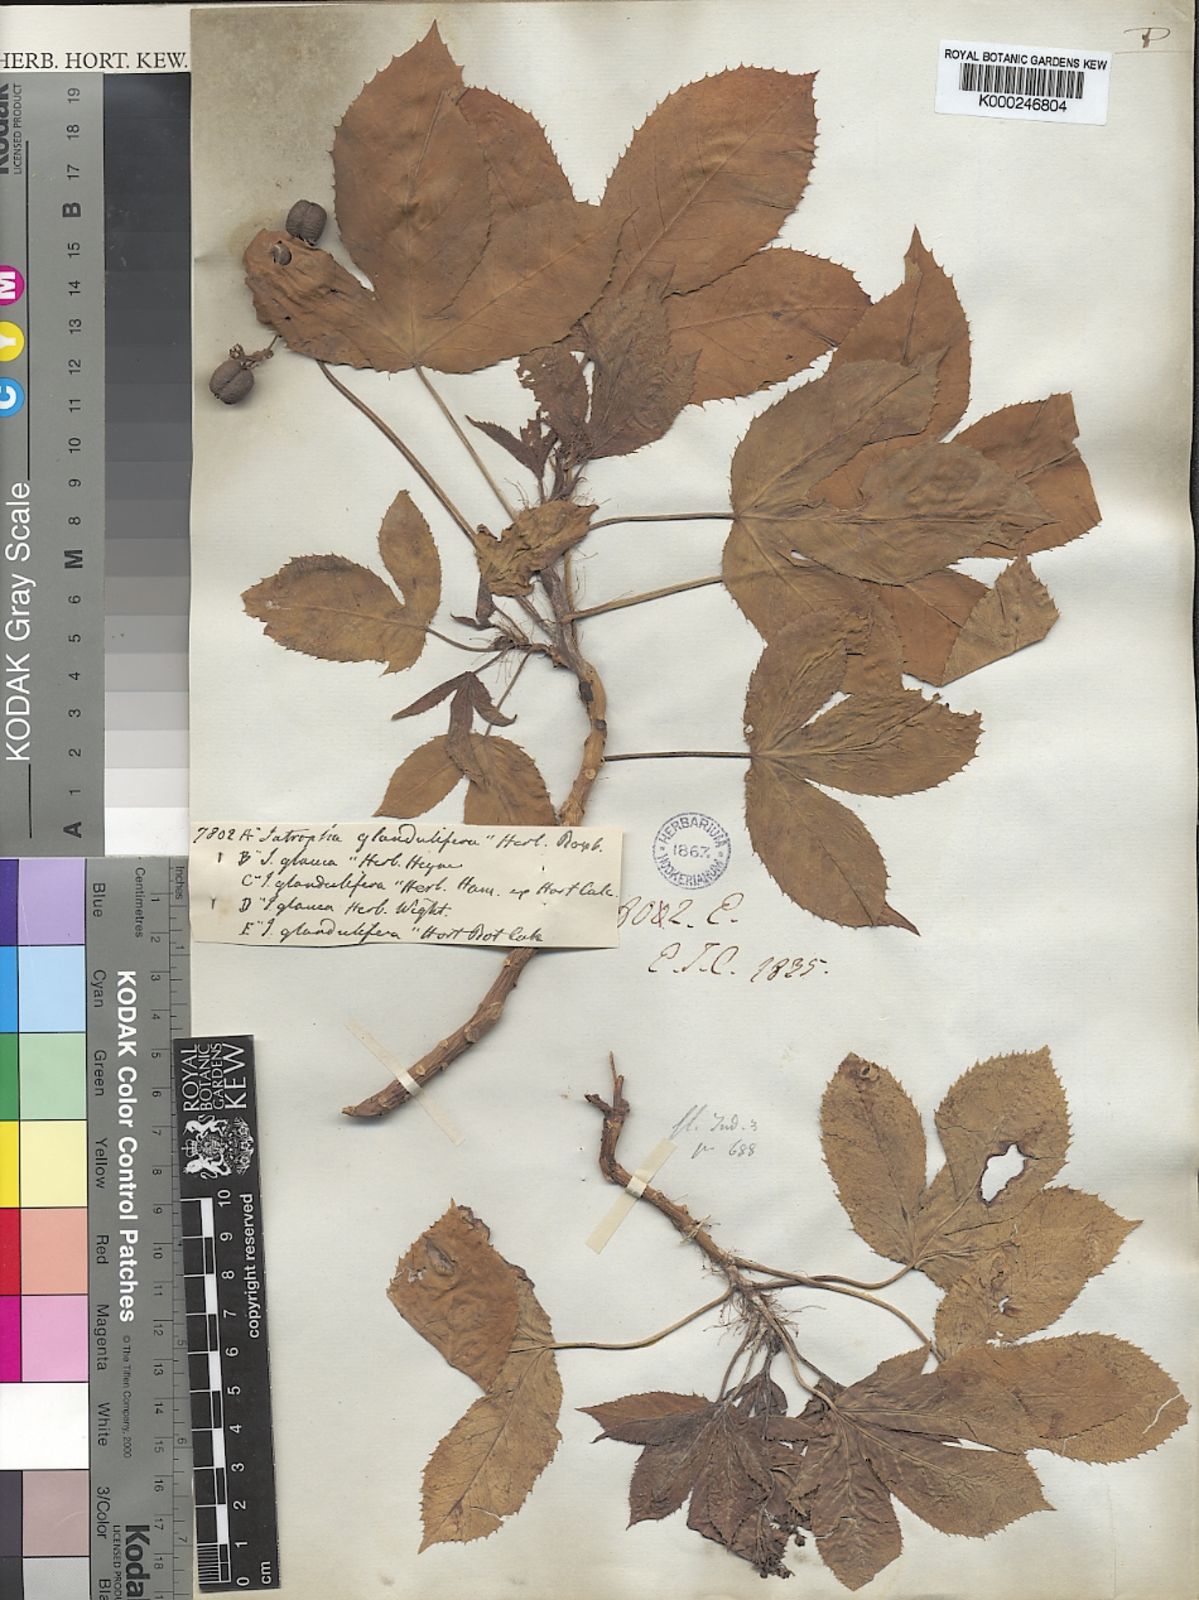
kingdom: Plantae
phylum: Tracheophyta
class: Magnoliopsida
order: Malpighiales
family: Euphorbiaceae
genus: Jatropha
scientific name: Jatropha glandulifera
